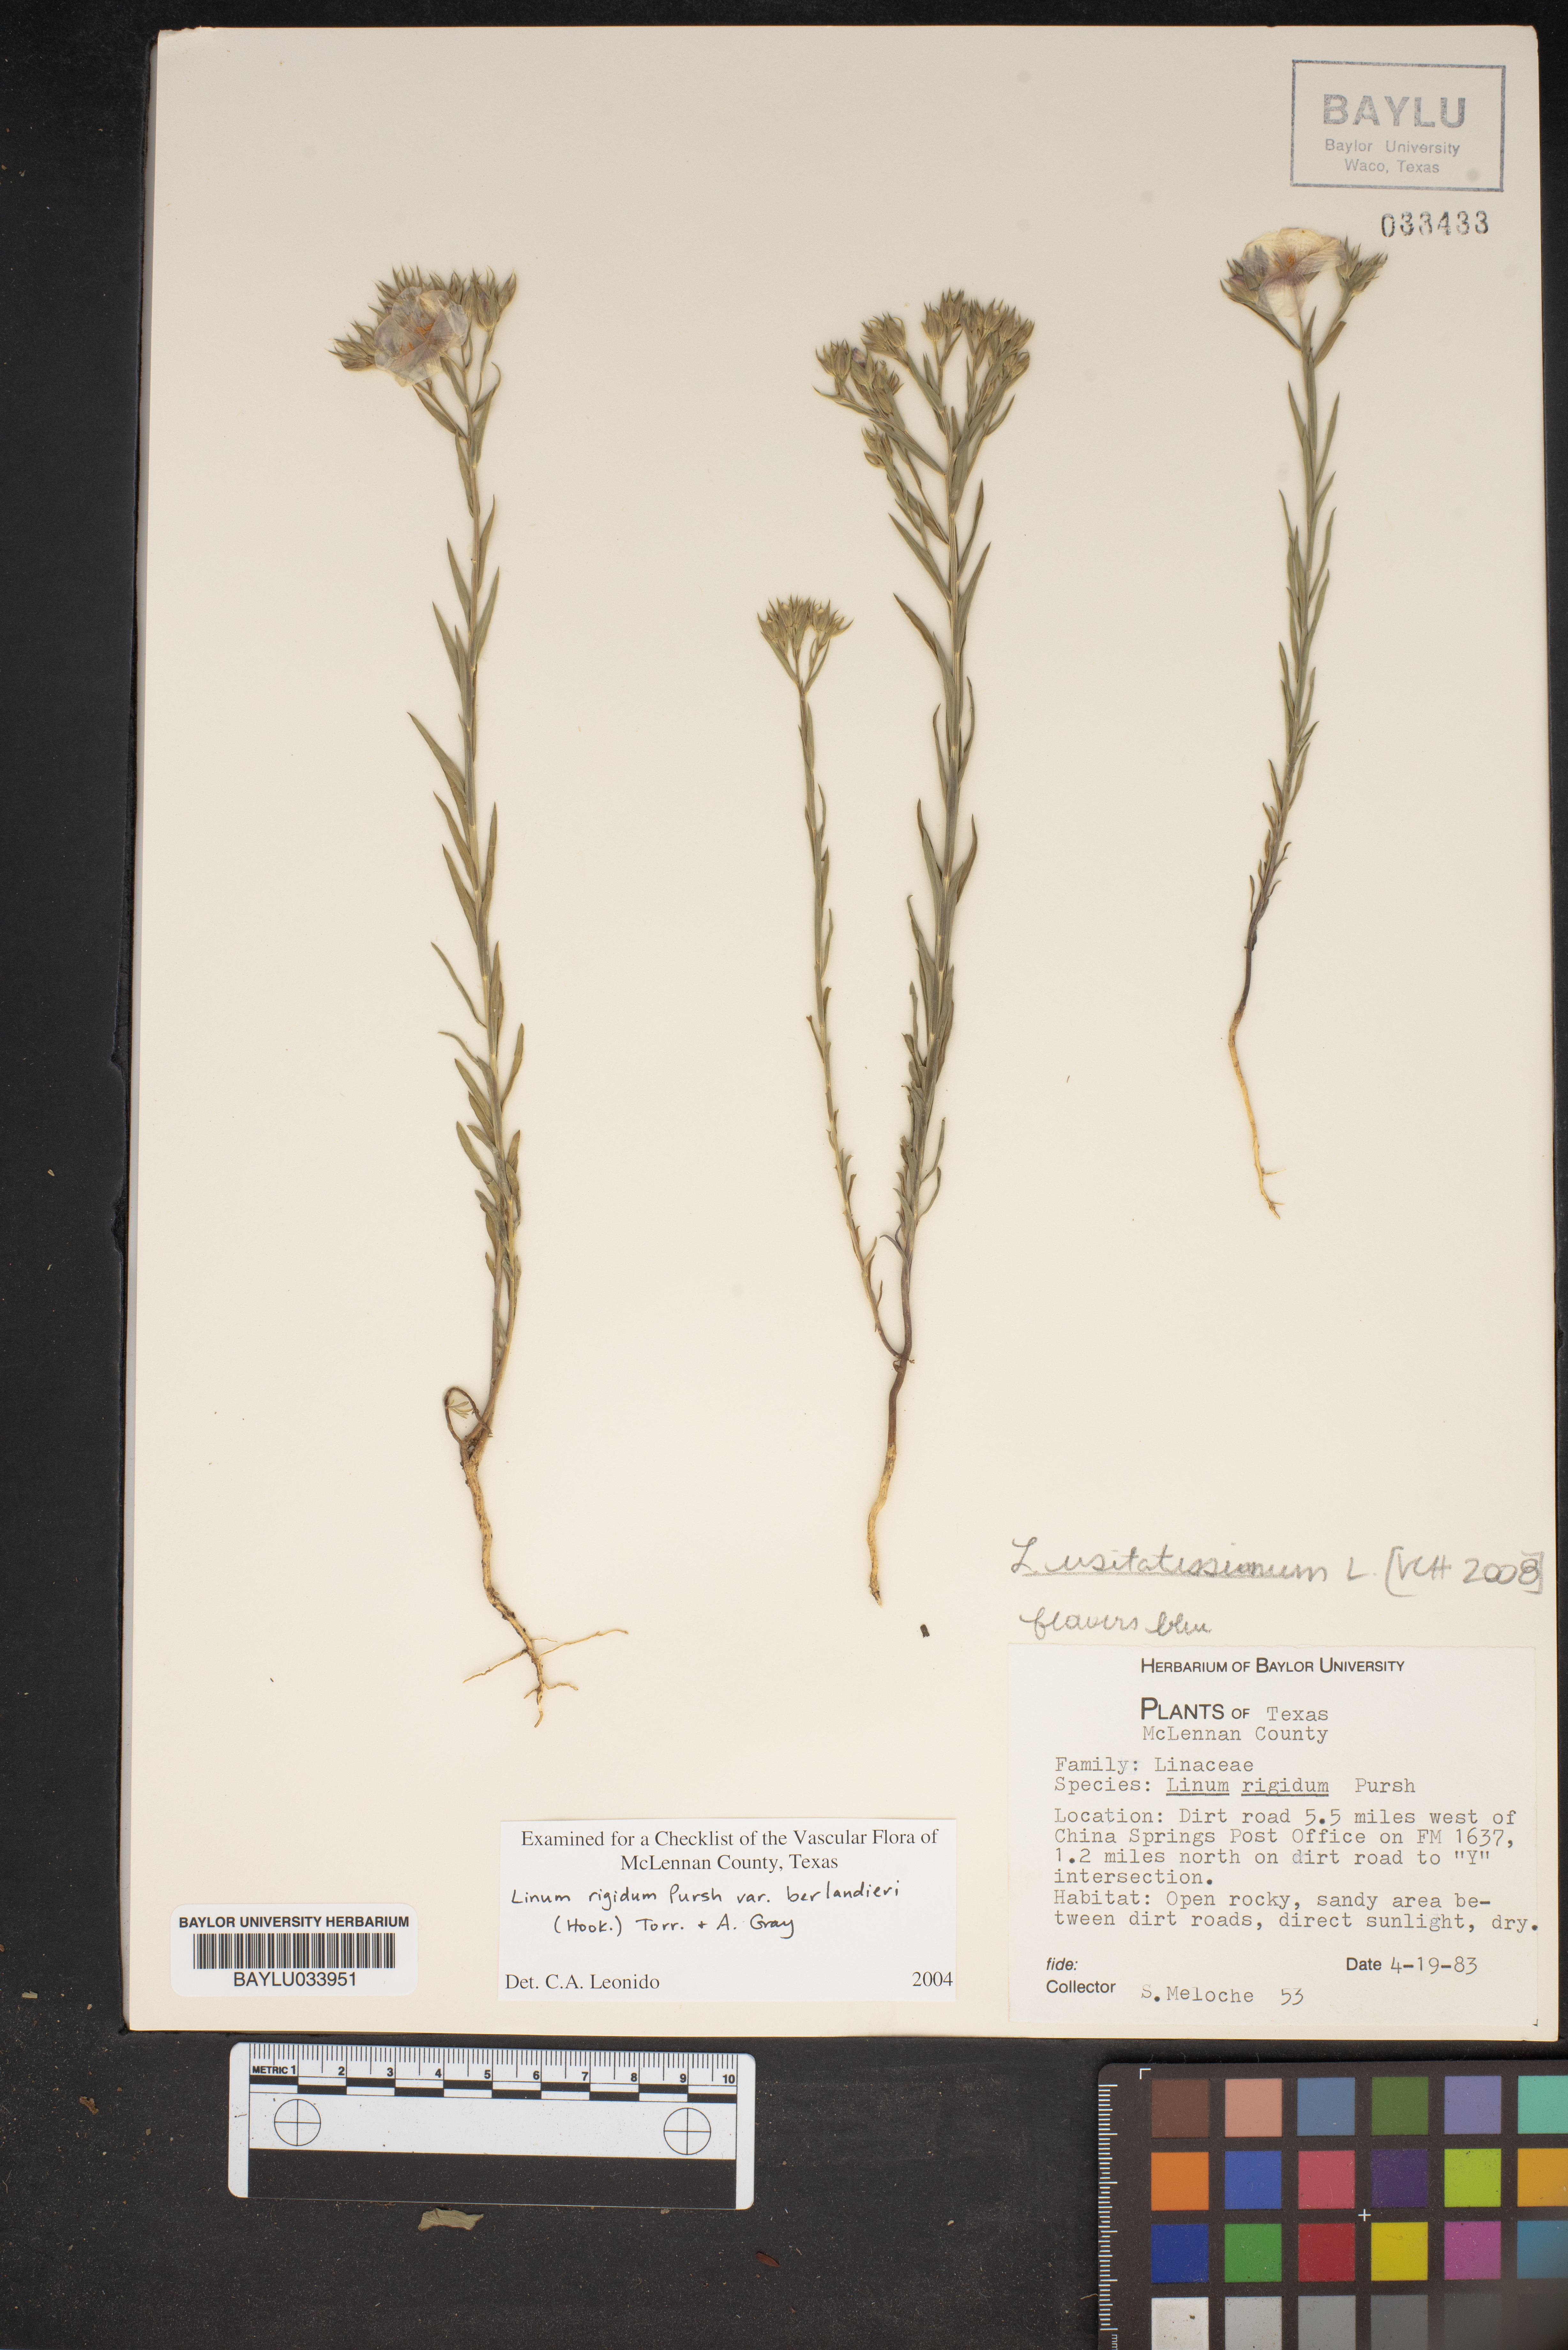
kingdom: Plantae
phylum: Tracheophyta
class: Magnoliopsida
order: Malpighiales
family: Linaceae
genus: Linum
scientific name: Linum rigidum
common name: Stiff-stem flax
